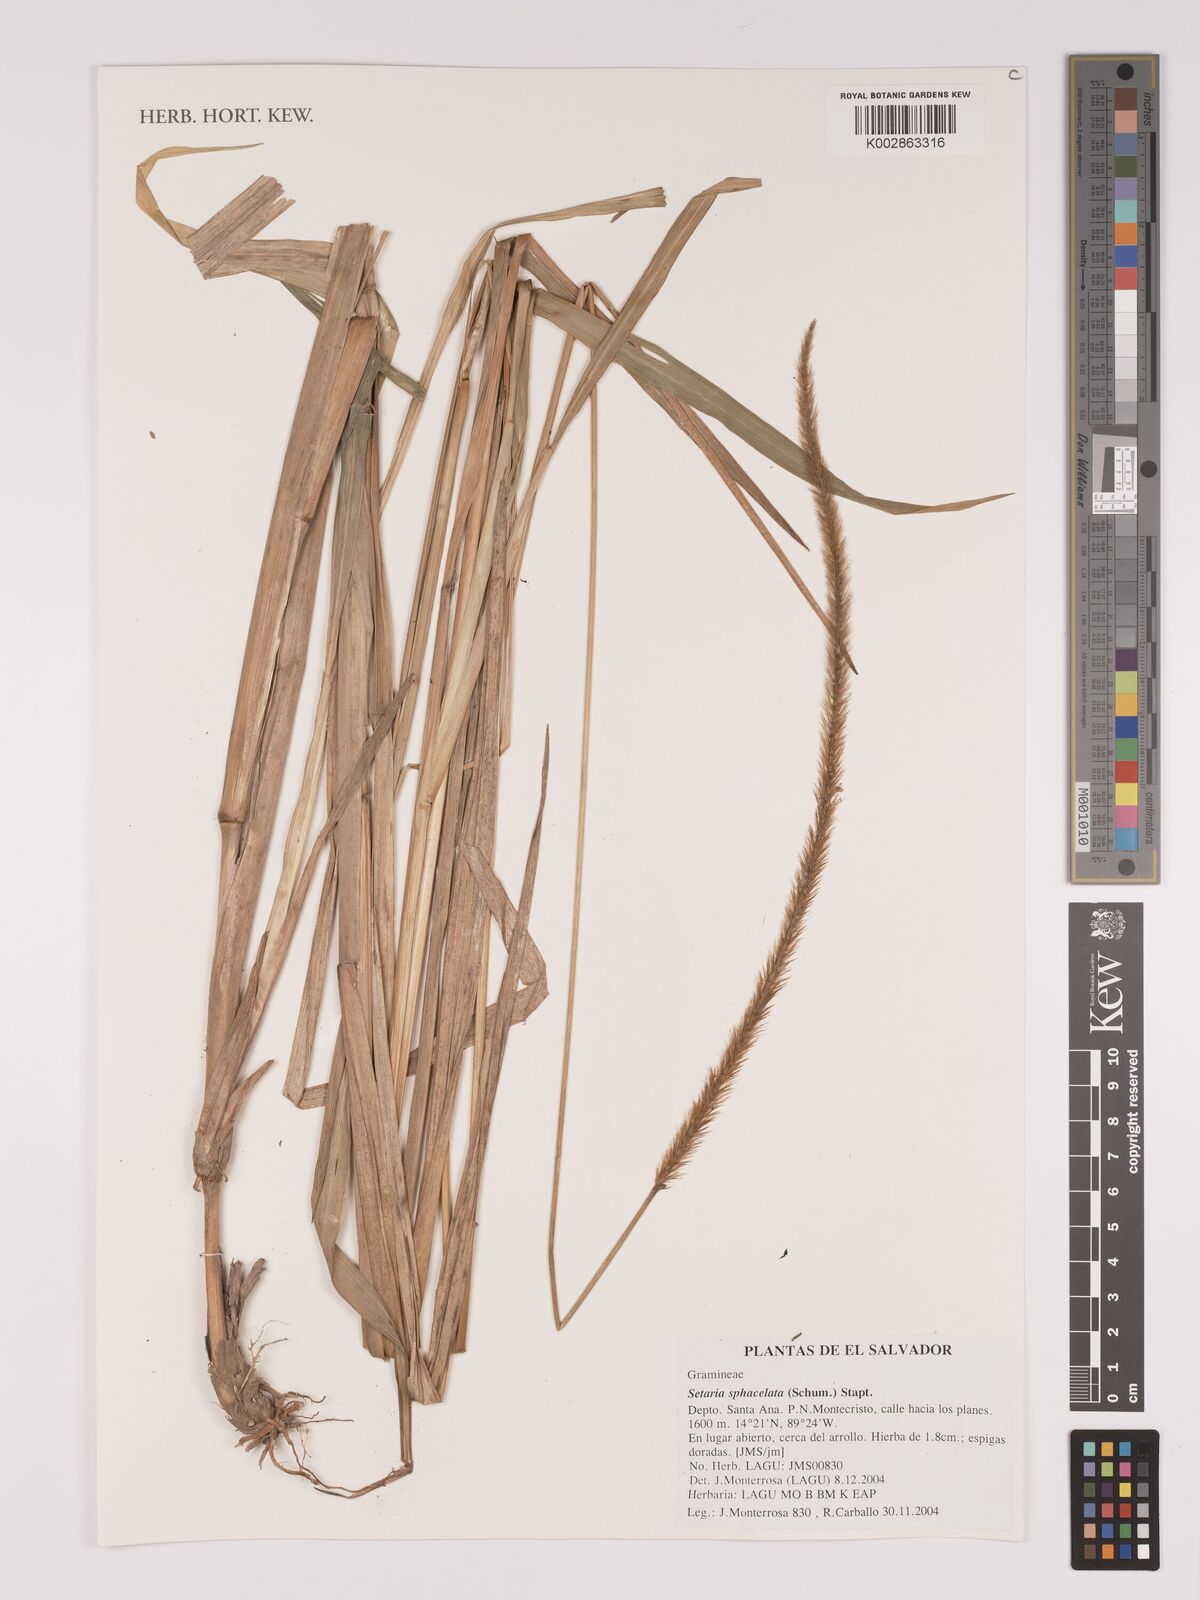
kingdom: Plantae
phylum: Tracheophyta
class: Liliopsida
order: Poales
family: Poaceae
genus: Setaria
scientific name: Setaria sphacelata
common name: African bristlegrass
